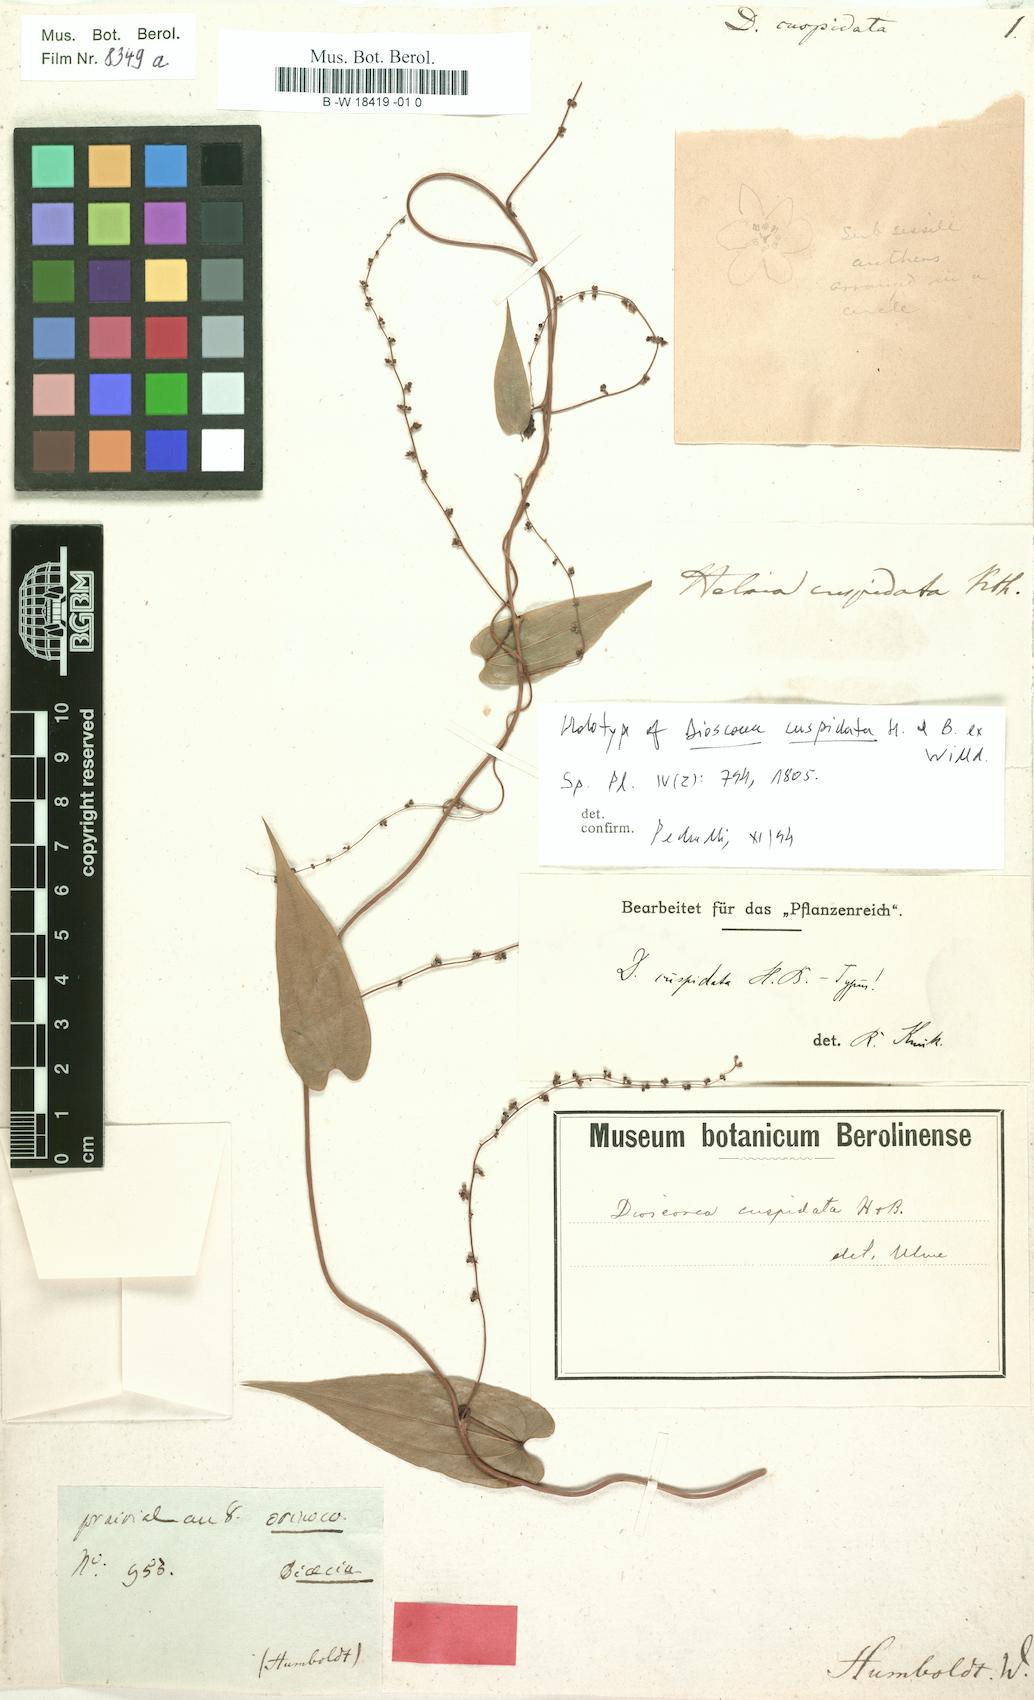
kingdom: Plantae
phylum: Tracheophyta
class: Liliopsida
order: Dioscoreales
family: Dioscoreaceae
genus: Dioscorea
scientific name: Dioscorea cuspidata
